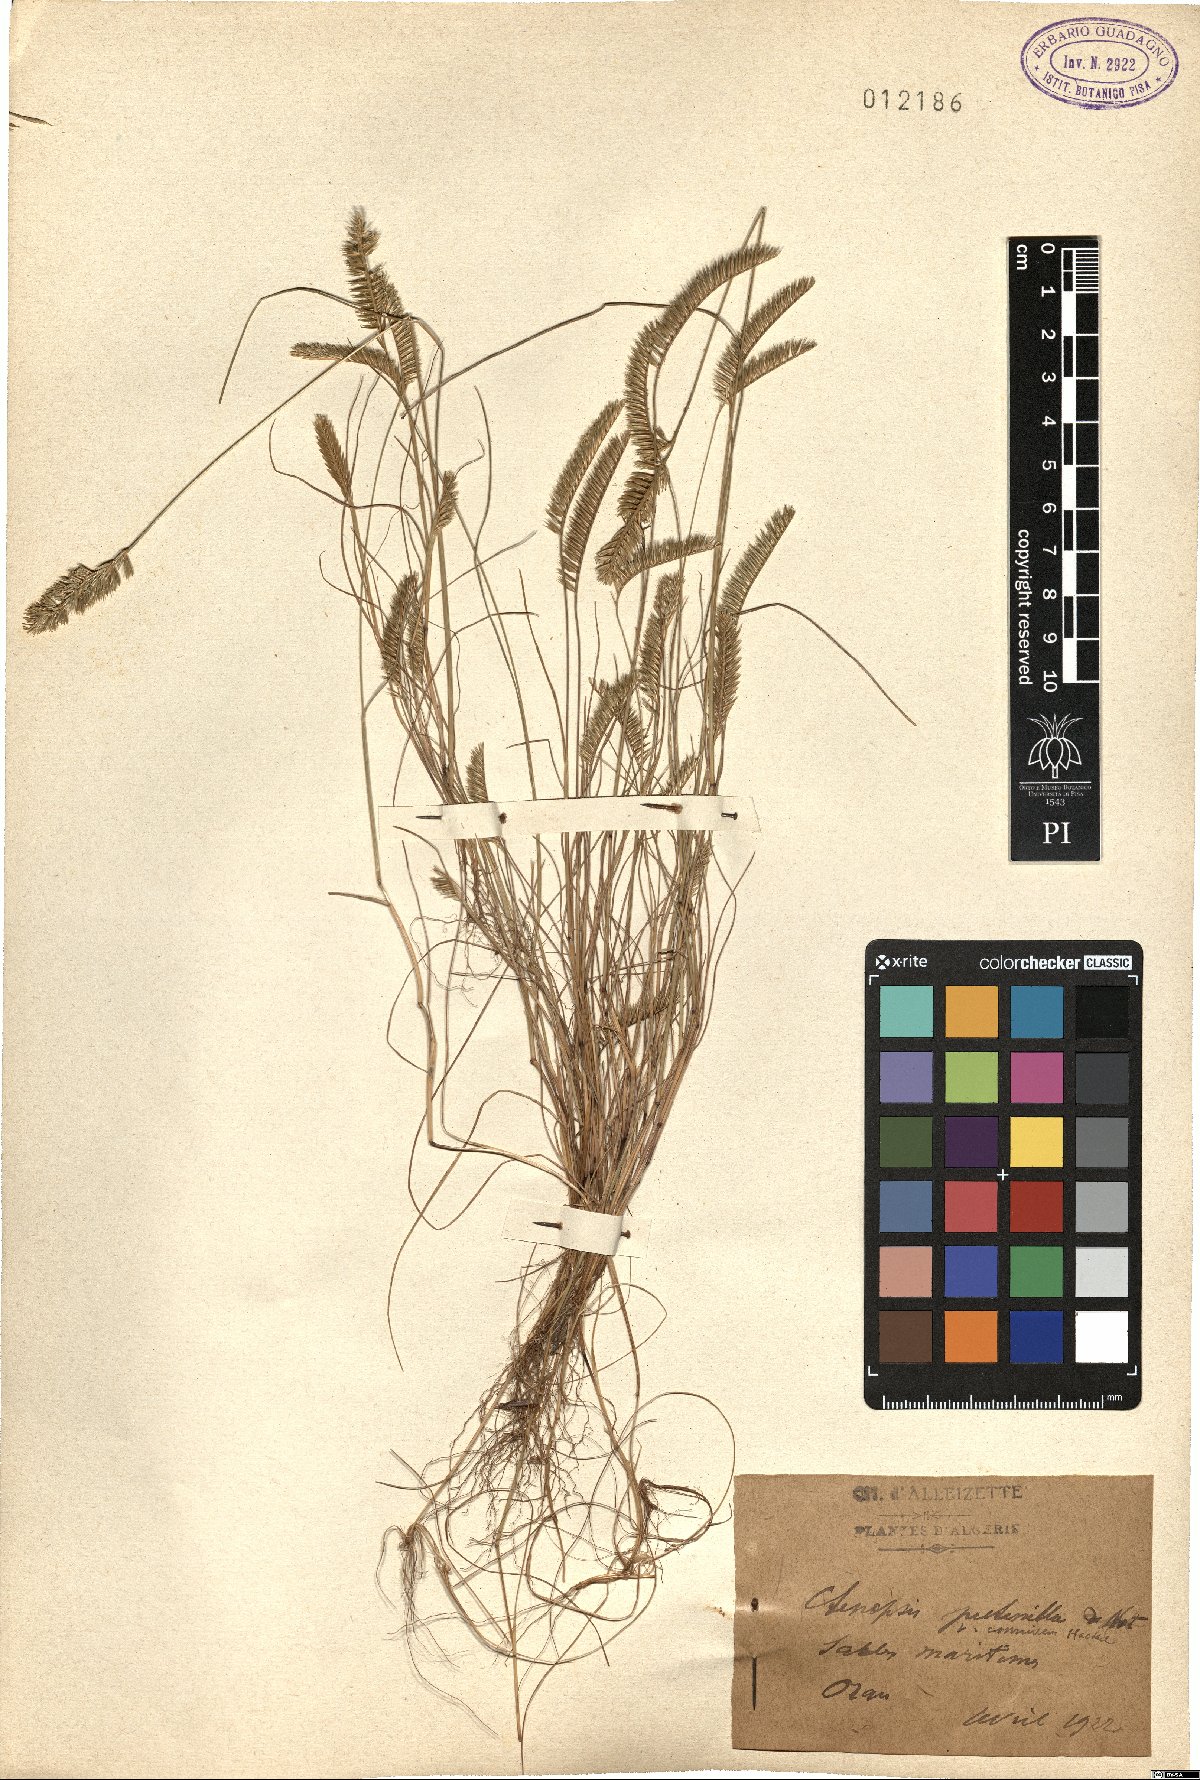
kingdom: Plantae
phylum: Tracheophyta
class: Liliopsida
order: Poales
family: Poaceae
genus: Festuca
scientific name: Festuca pectinella
